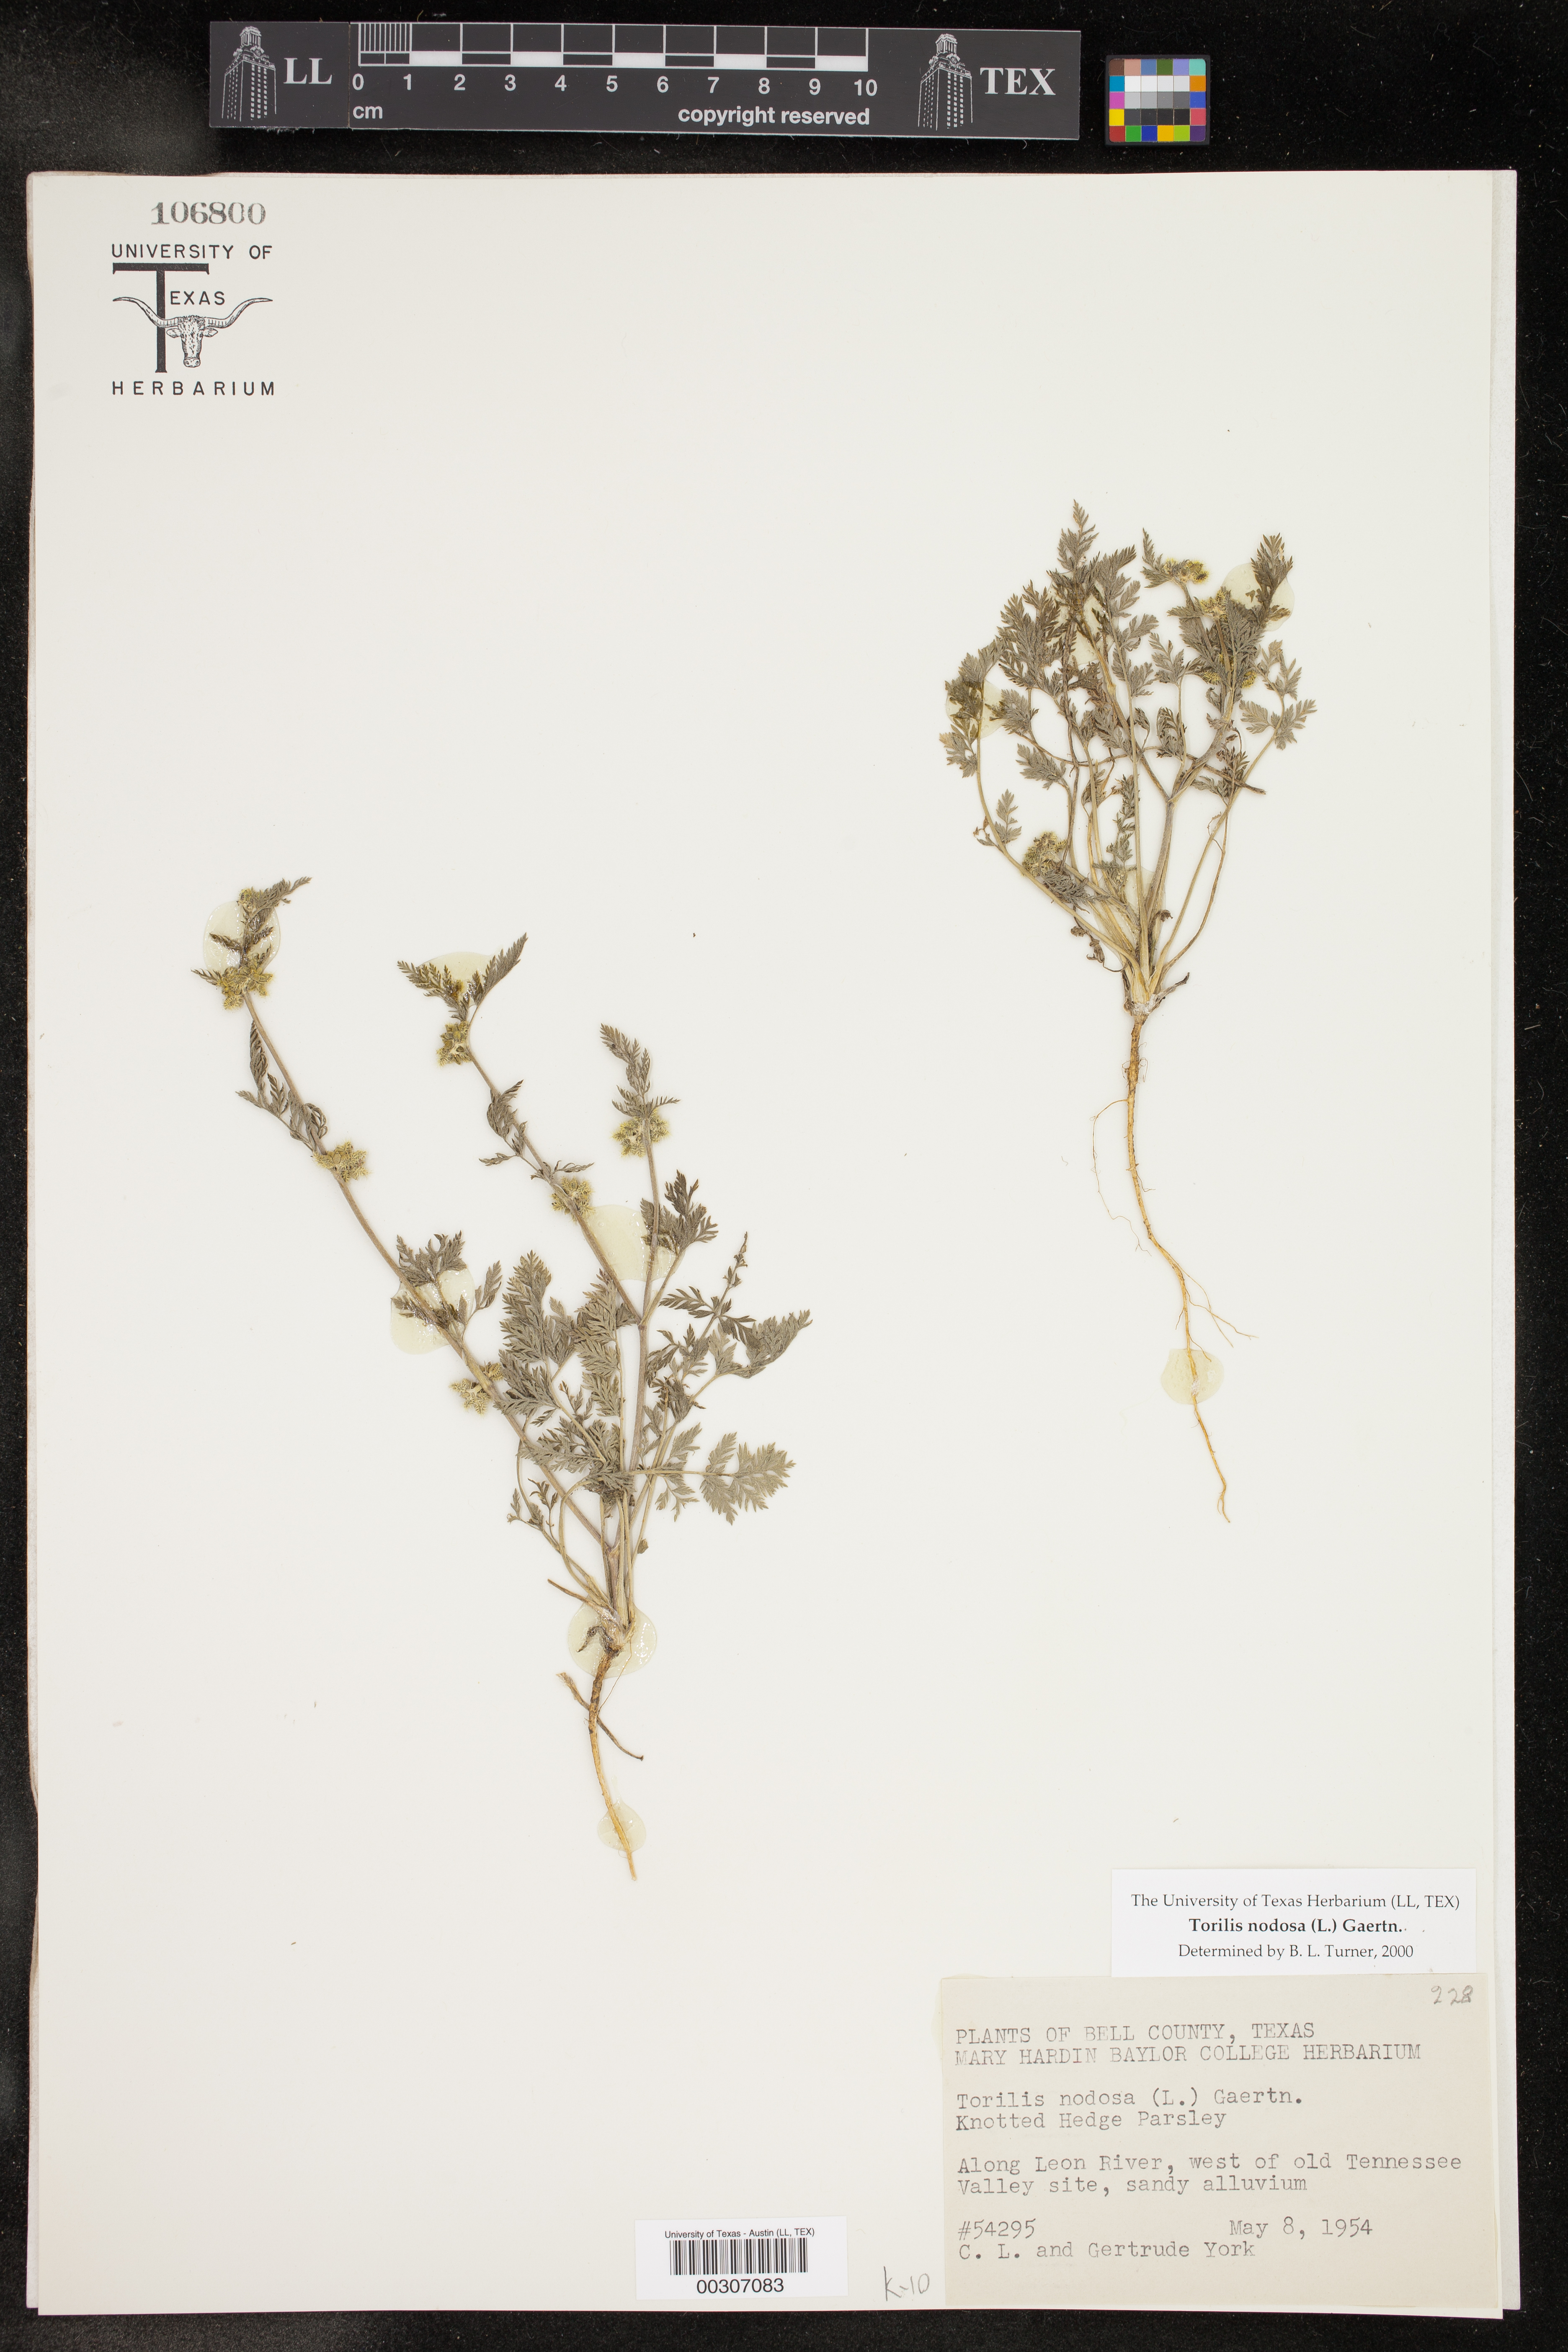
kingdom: Plantae
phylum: Tracheophyta
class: Magnoliopsida
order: Apiales
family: Apiaceae
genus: Torilis
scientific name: Torilis nodosa
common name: Knotted hedge-parsley
